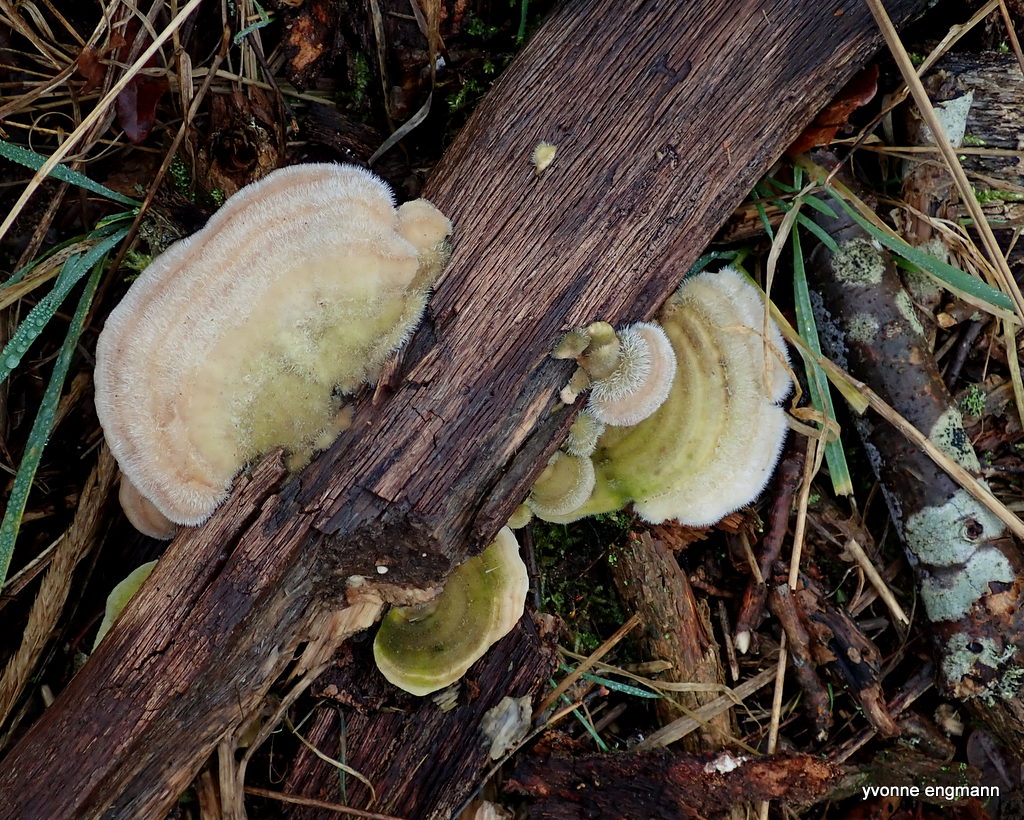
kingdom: Fungi
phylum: Basidiomycota
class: Agaricomycetes
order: Polyporales
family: Polyporaceae
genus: Trametes
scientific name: Trametes hirsuta
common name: håret læderporesvamp
